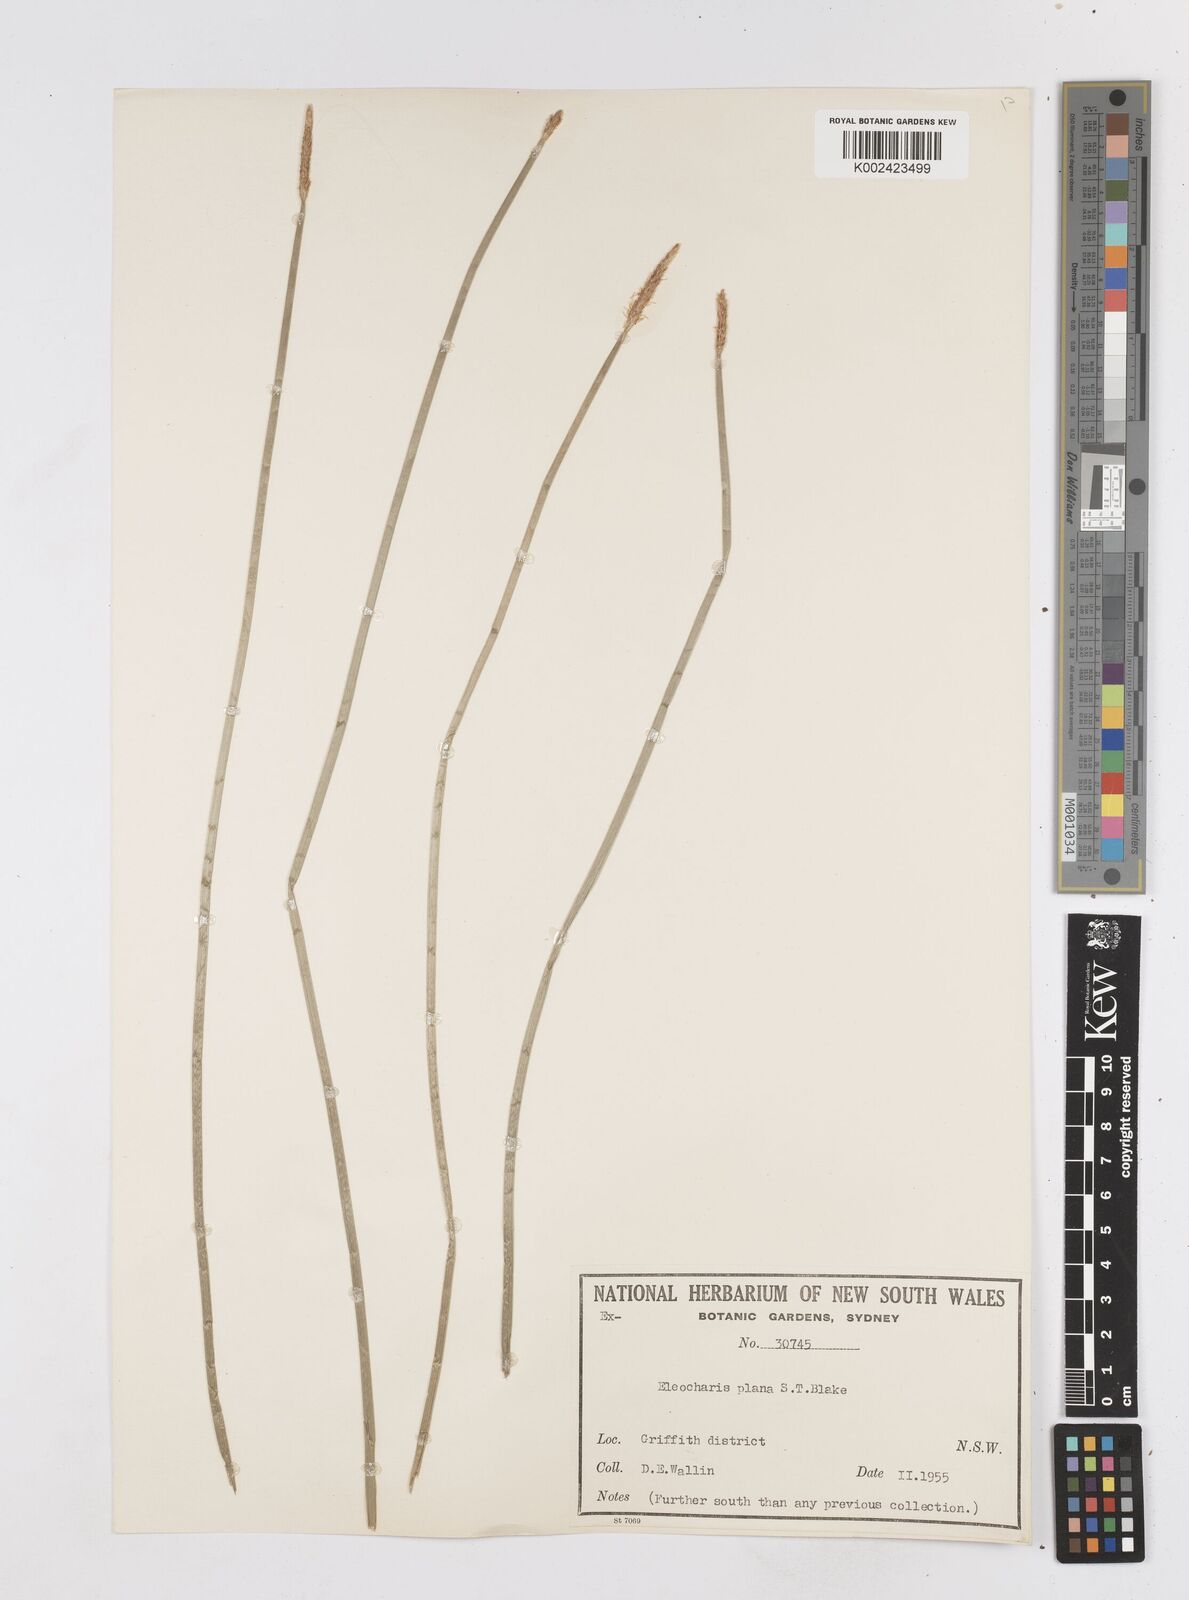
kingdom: Plantae
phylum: Tracheophyta
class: Liliopsida
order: Poales
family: Cyperaceae
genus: Eleocharis
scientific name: Eleocharis plana
